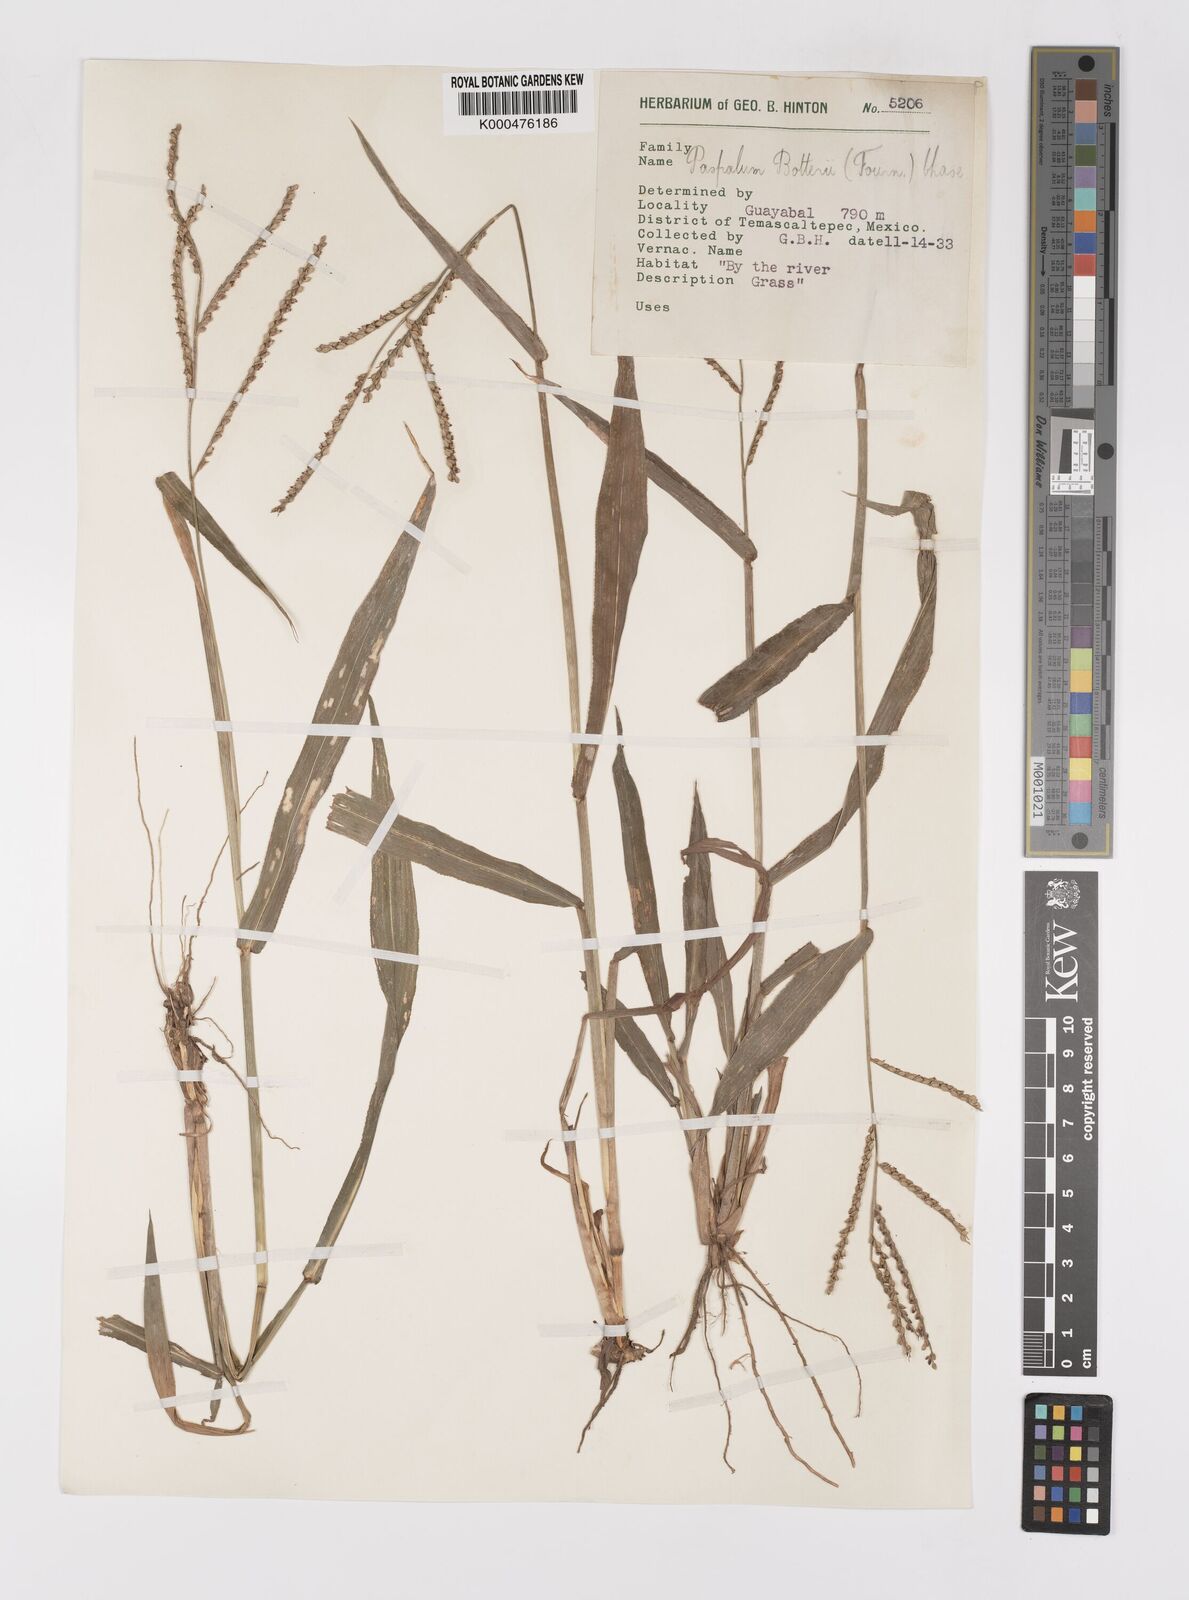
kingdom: Plantae
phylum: Tracheophyta
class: Liliopsida
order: Poales
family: Poaceae
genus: Paspalum
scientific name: Paspalum botterii
